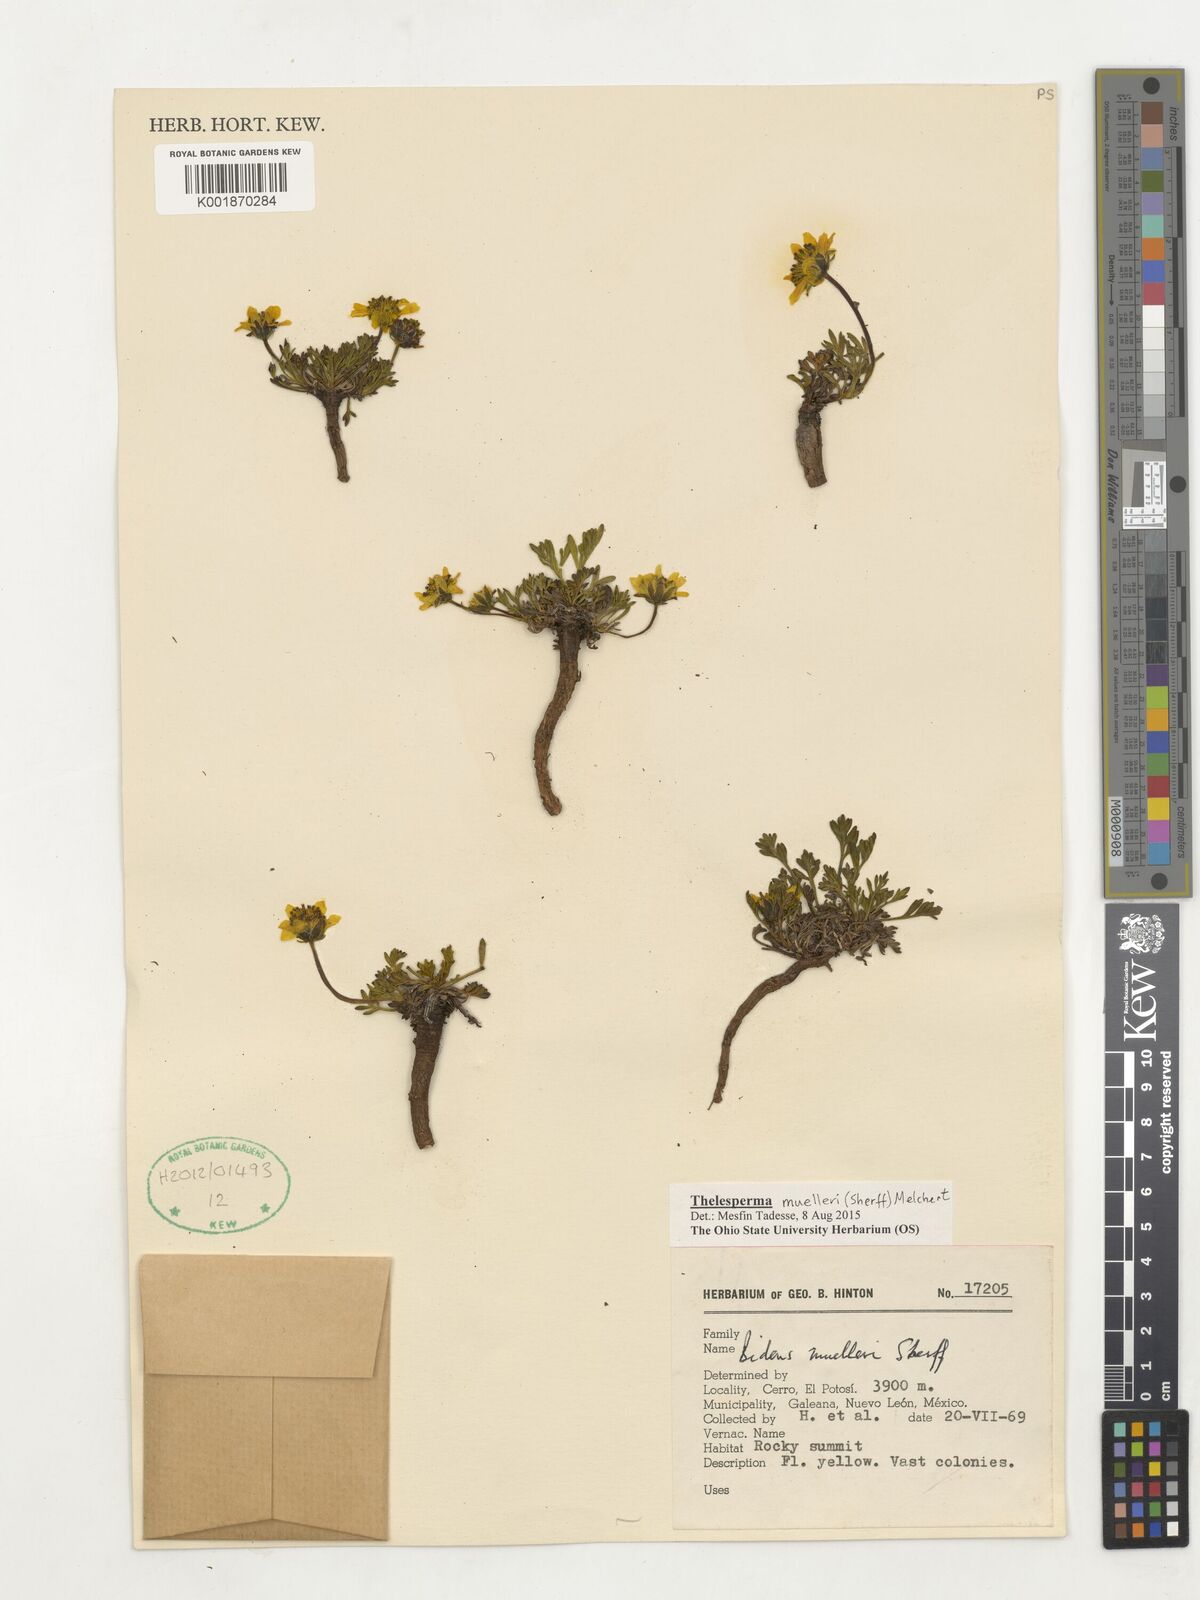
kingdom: Plantae
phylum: Tracheophyta
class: Magnoliopsida
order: Asterales
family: Asteraceae
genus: Thelesperma
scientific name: Thelesperma muelleri
